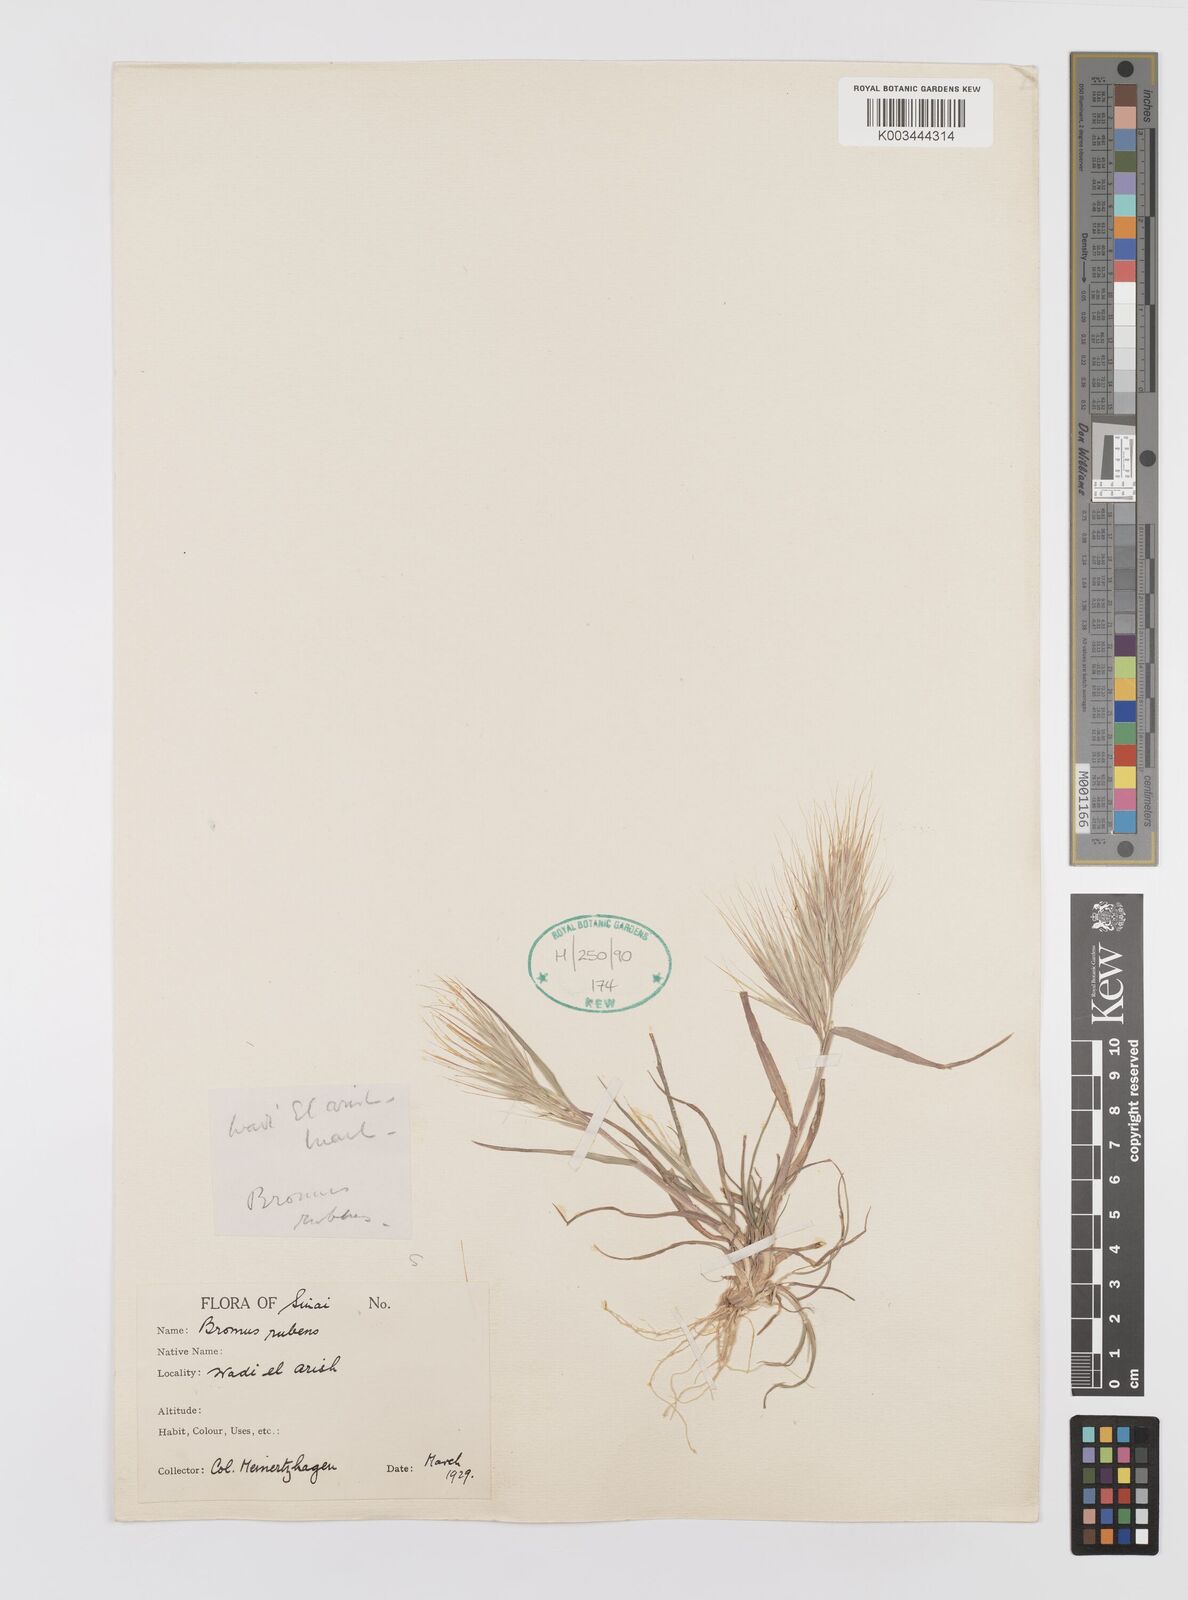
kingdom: Plantae
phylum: Tracheophyta
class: Liliopsida
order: Poales
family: Poaceae
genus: Bromus
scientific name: Bromus madritensis
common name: Compact brome
